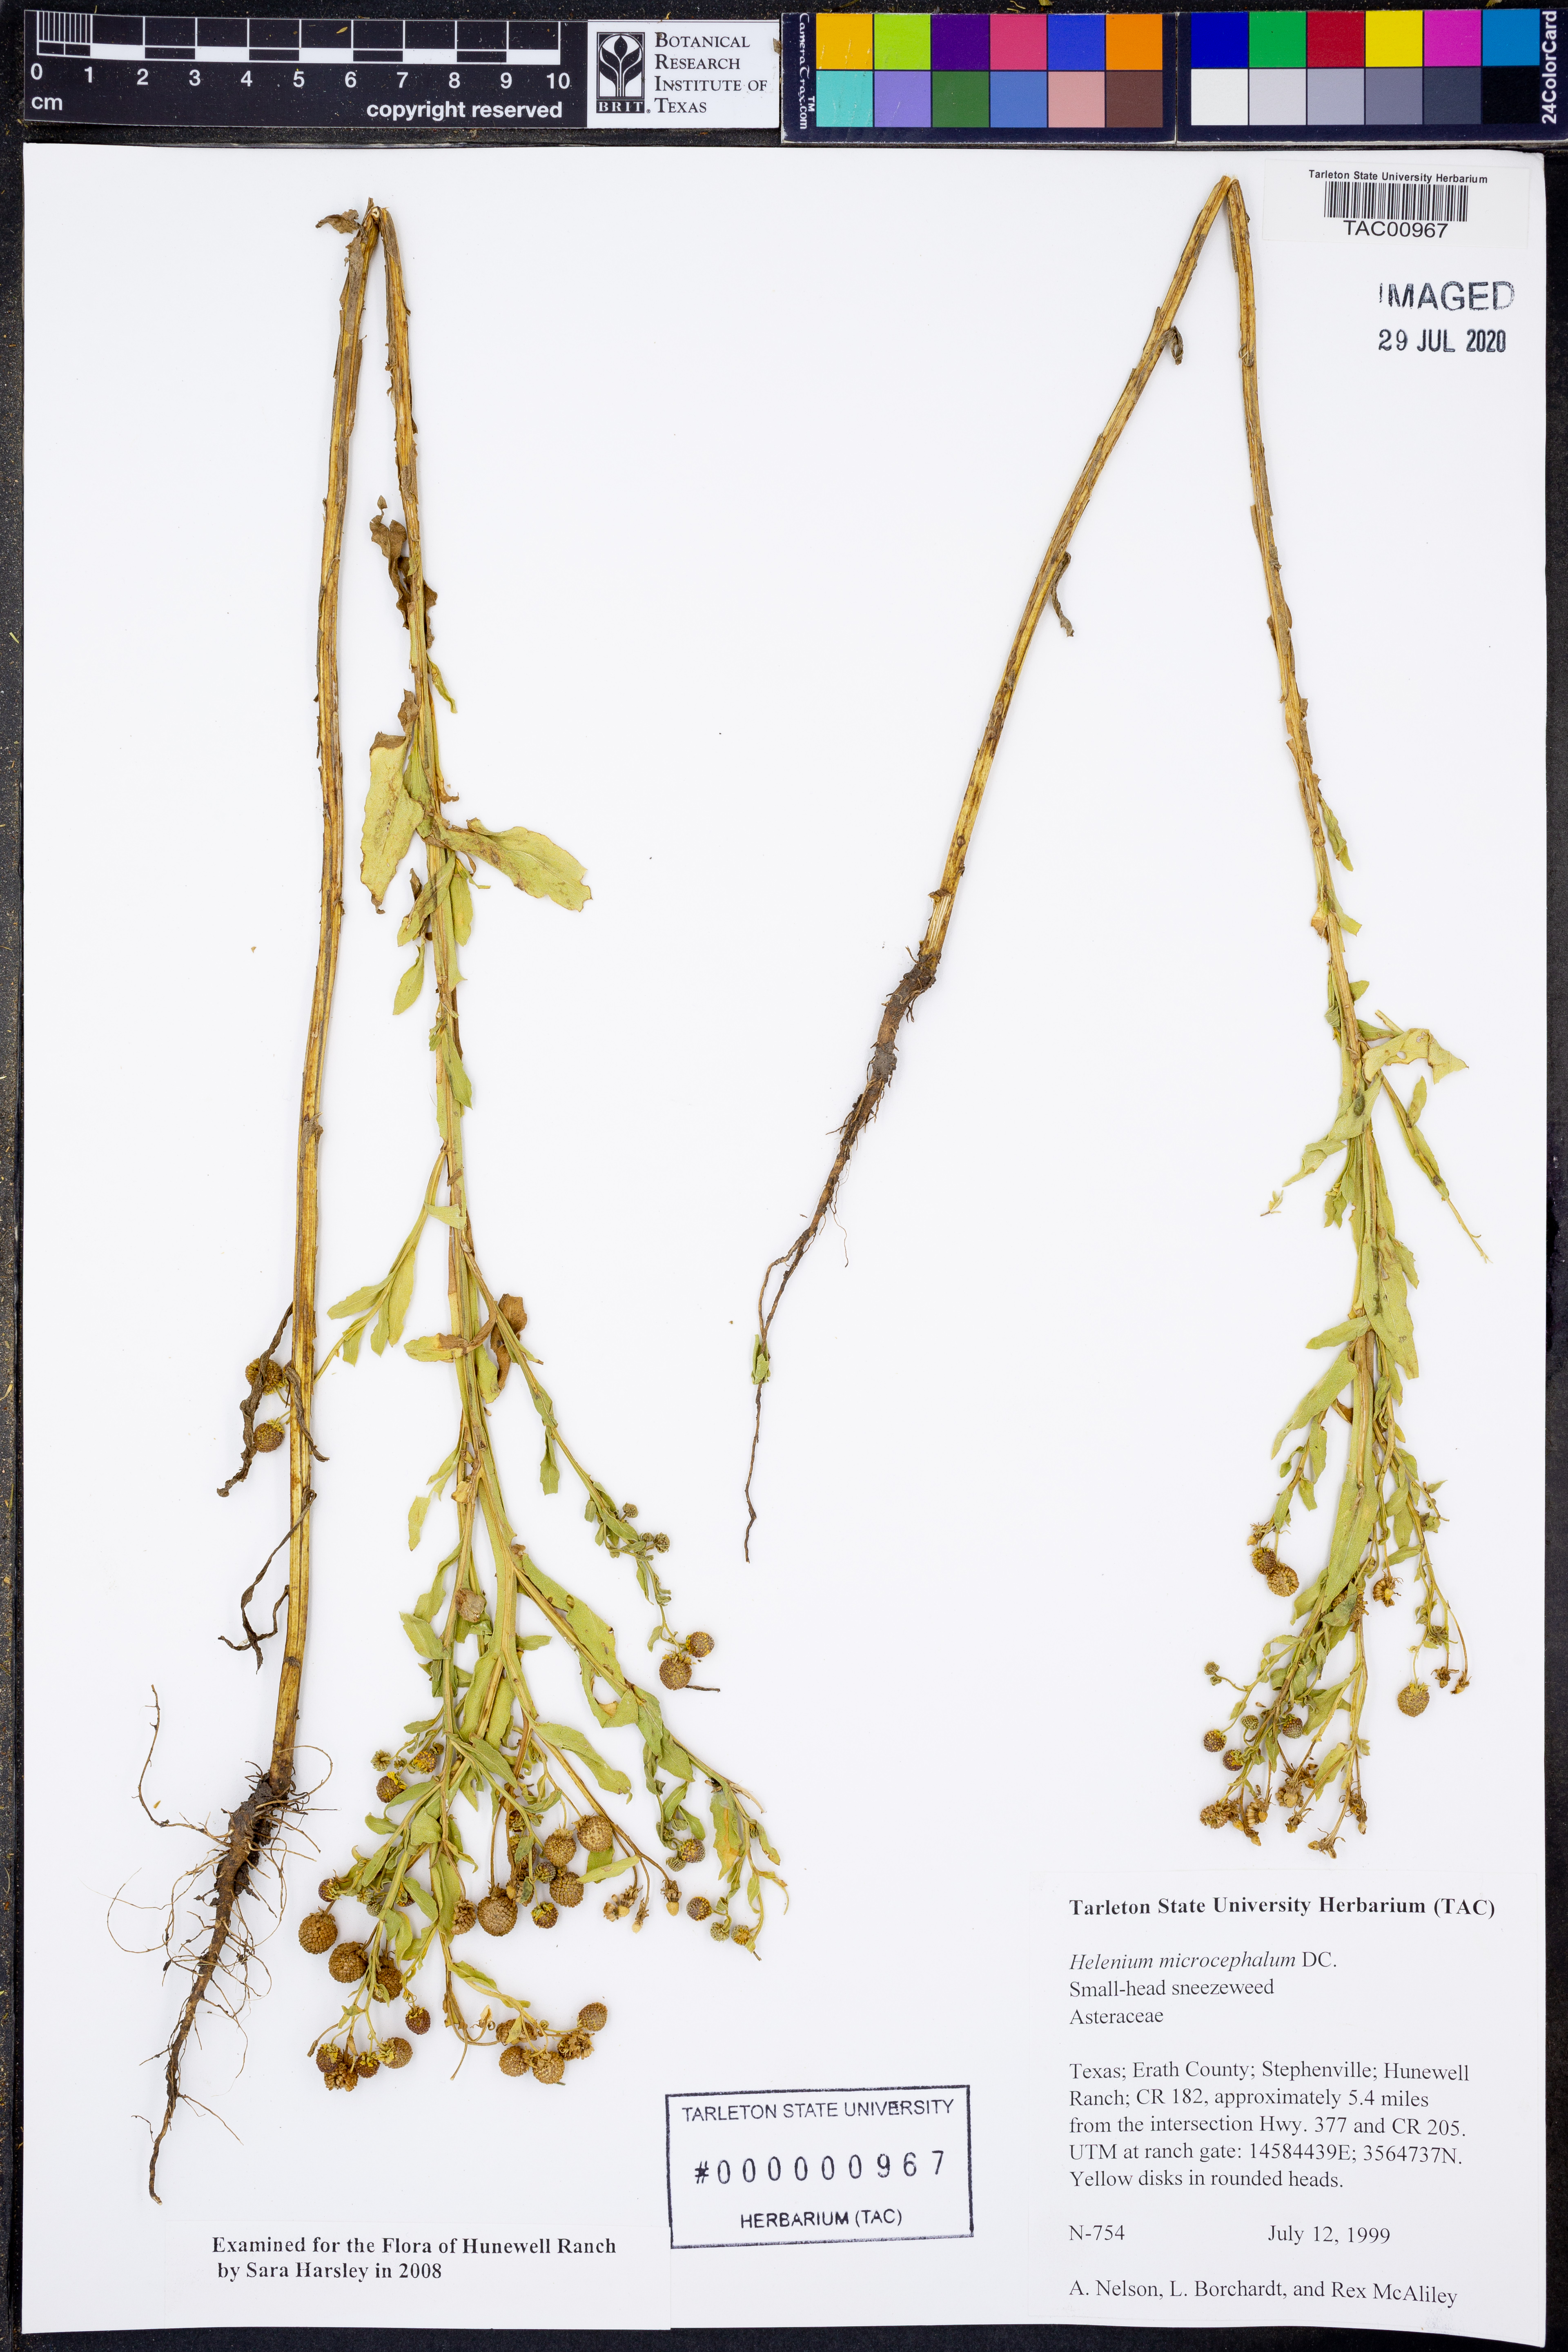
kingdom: Plantae
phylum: Tracheophyta
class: Magnoliopsida
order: Asterales
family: Asteraceae
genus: Helenium
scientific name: Helenium microcephalum
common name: Smallhead sneezeweed
